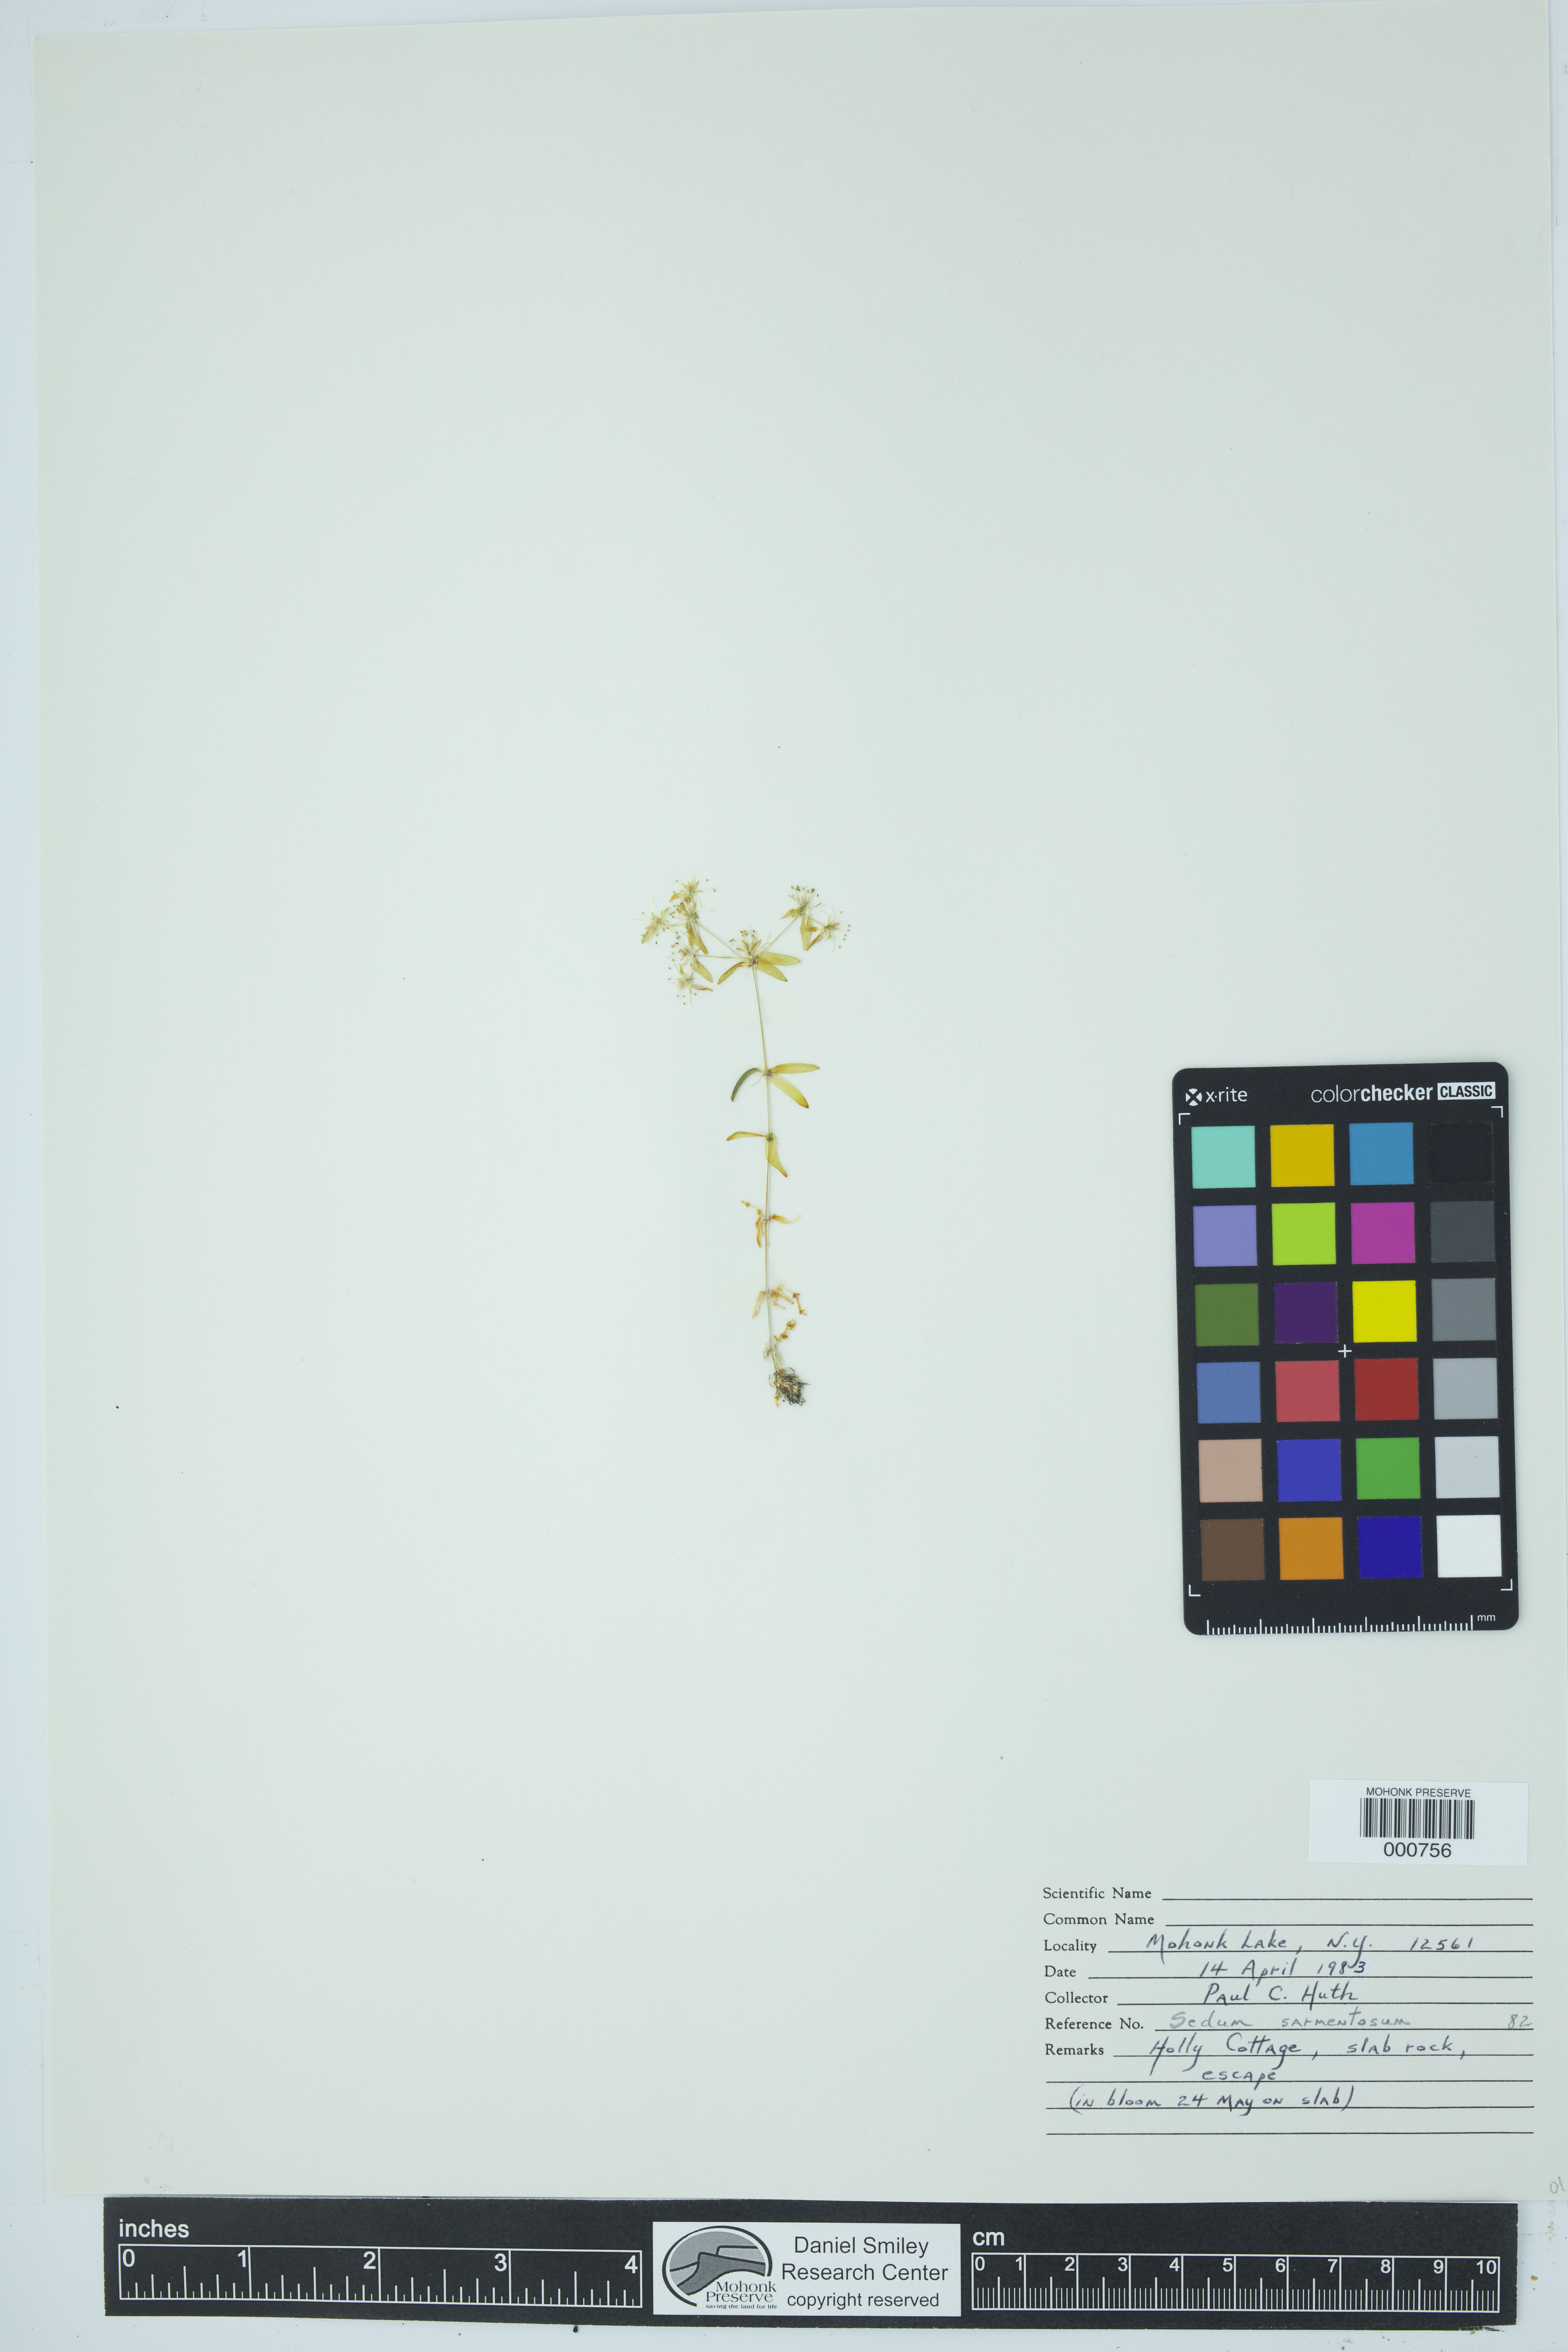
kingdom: Plantae
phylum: Tracheophyta
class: Magnoliopsida
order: Saxifragales
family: Crassulaceae
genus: Sedum
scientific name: Sedum sarmentosum
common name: Stringy stonecrop
